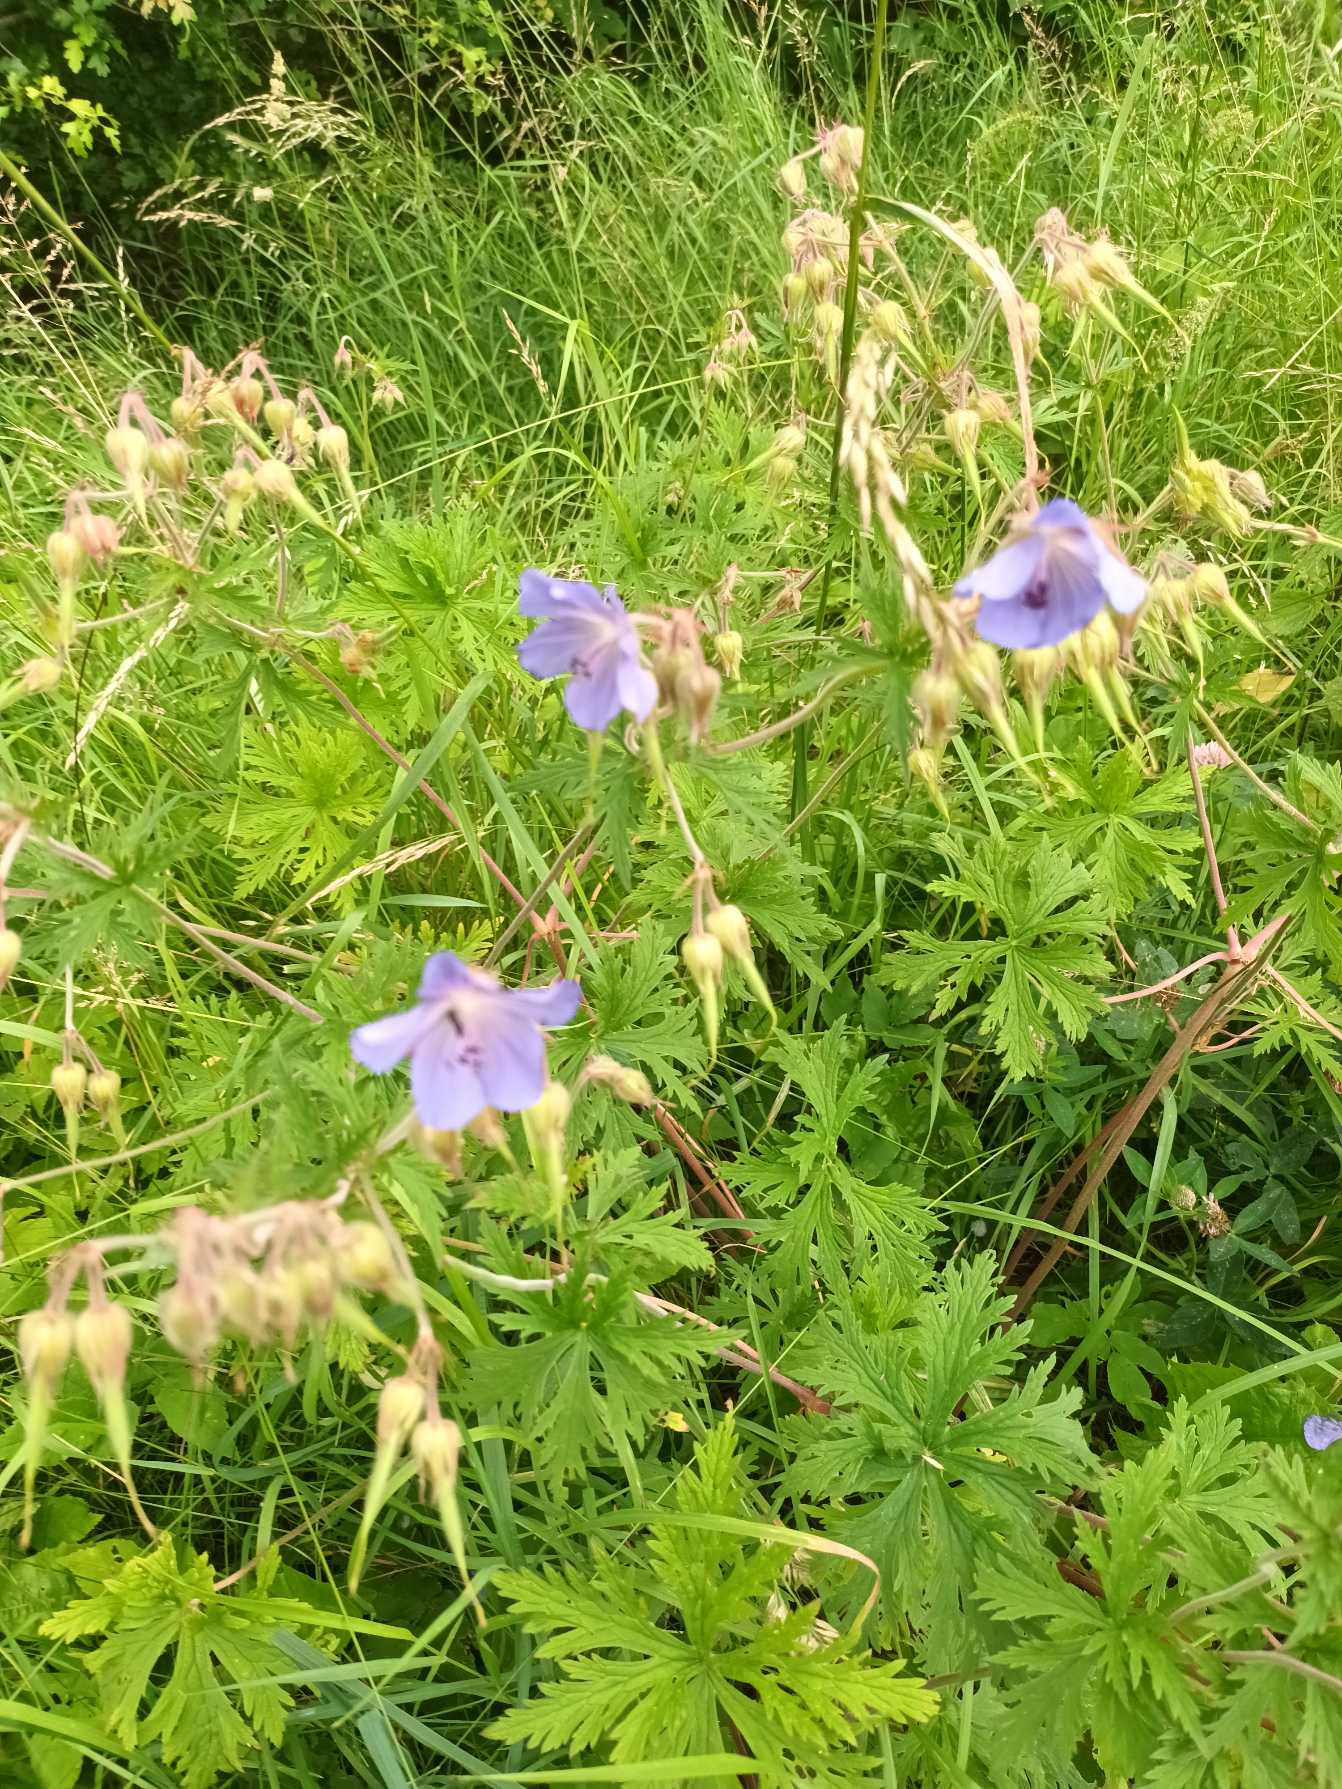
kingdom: Plantae
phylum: Tracheophyta
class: Magnoliopsida
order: Geraniales
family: Geraniaceae
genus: Geranium
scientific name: Geranium pratense
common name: Eng-storkenæb
